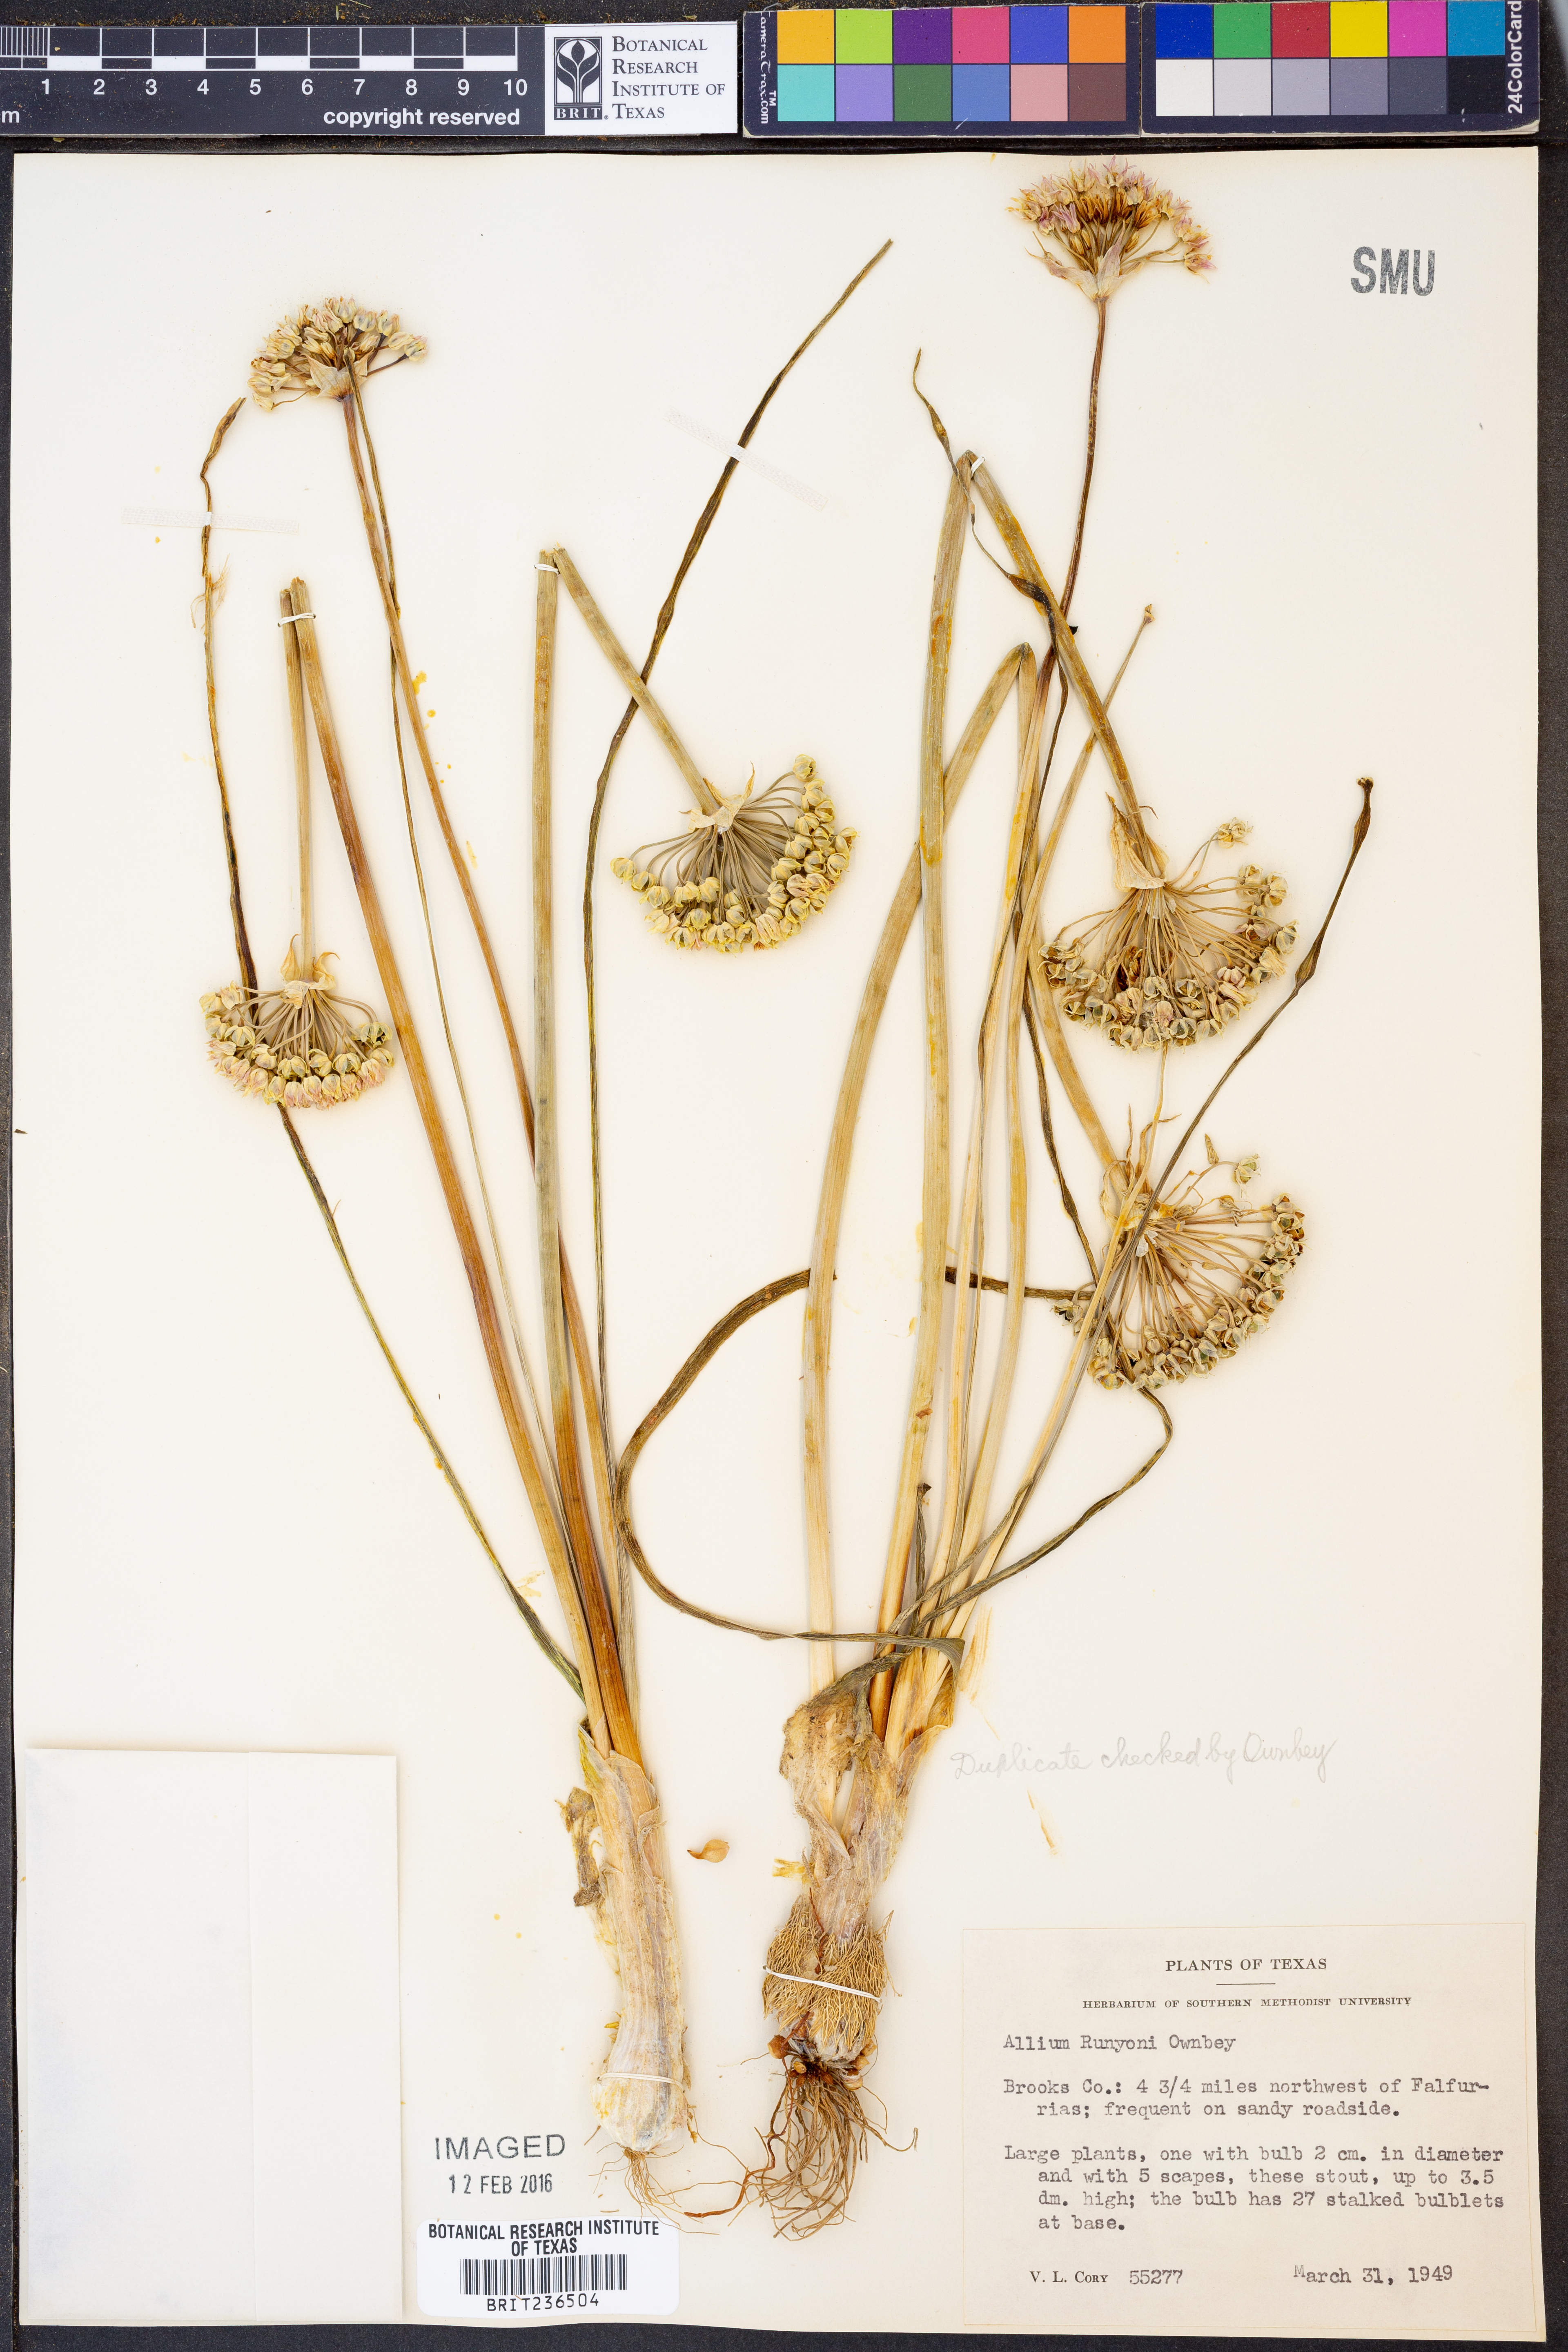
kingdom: Plantae
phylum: Tracheophyta
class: Liliopsida
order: Asparagales
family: Amaryllidaceae
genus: Allium
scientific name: Allium runyonii
